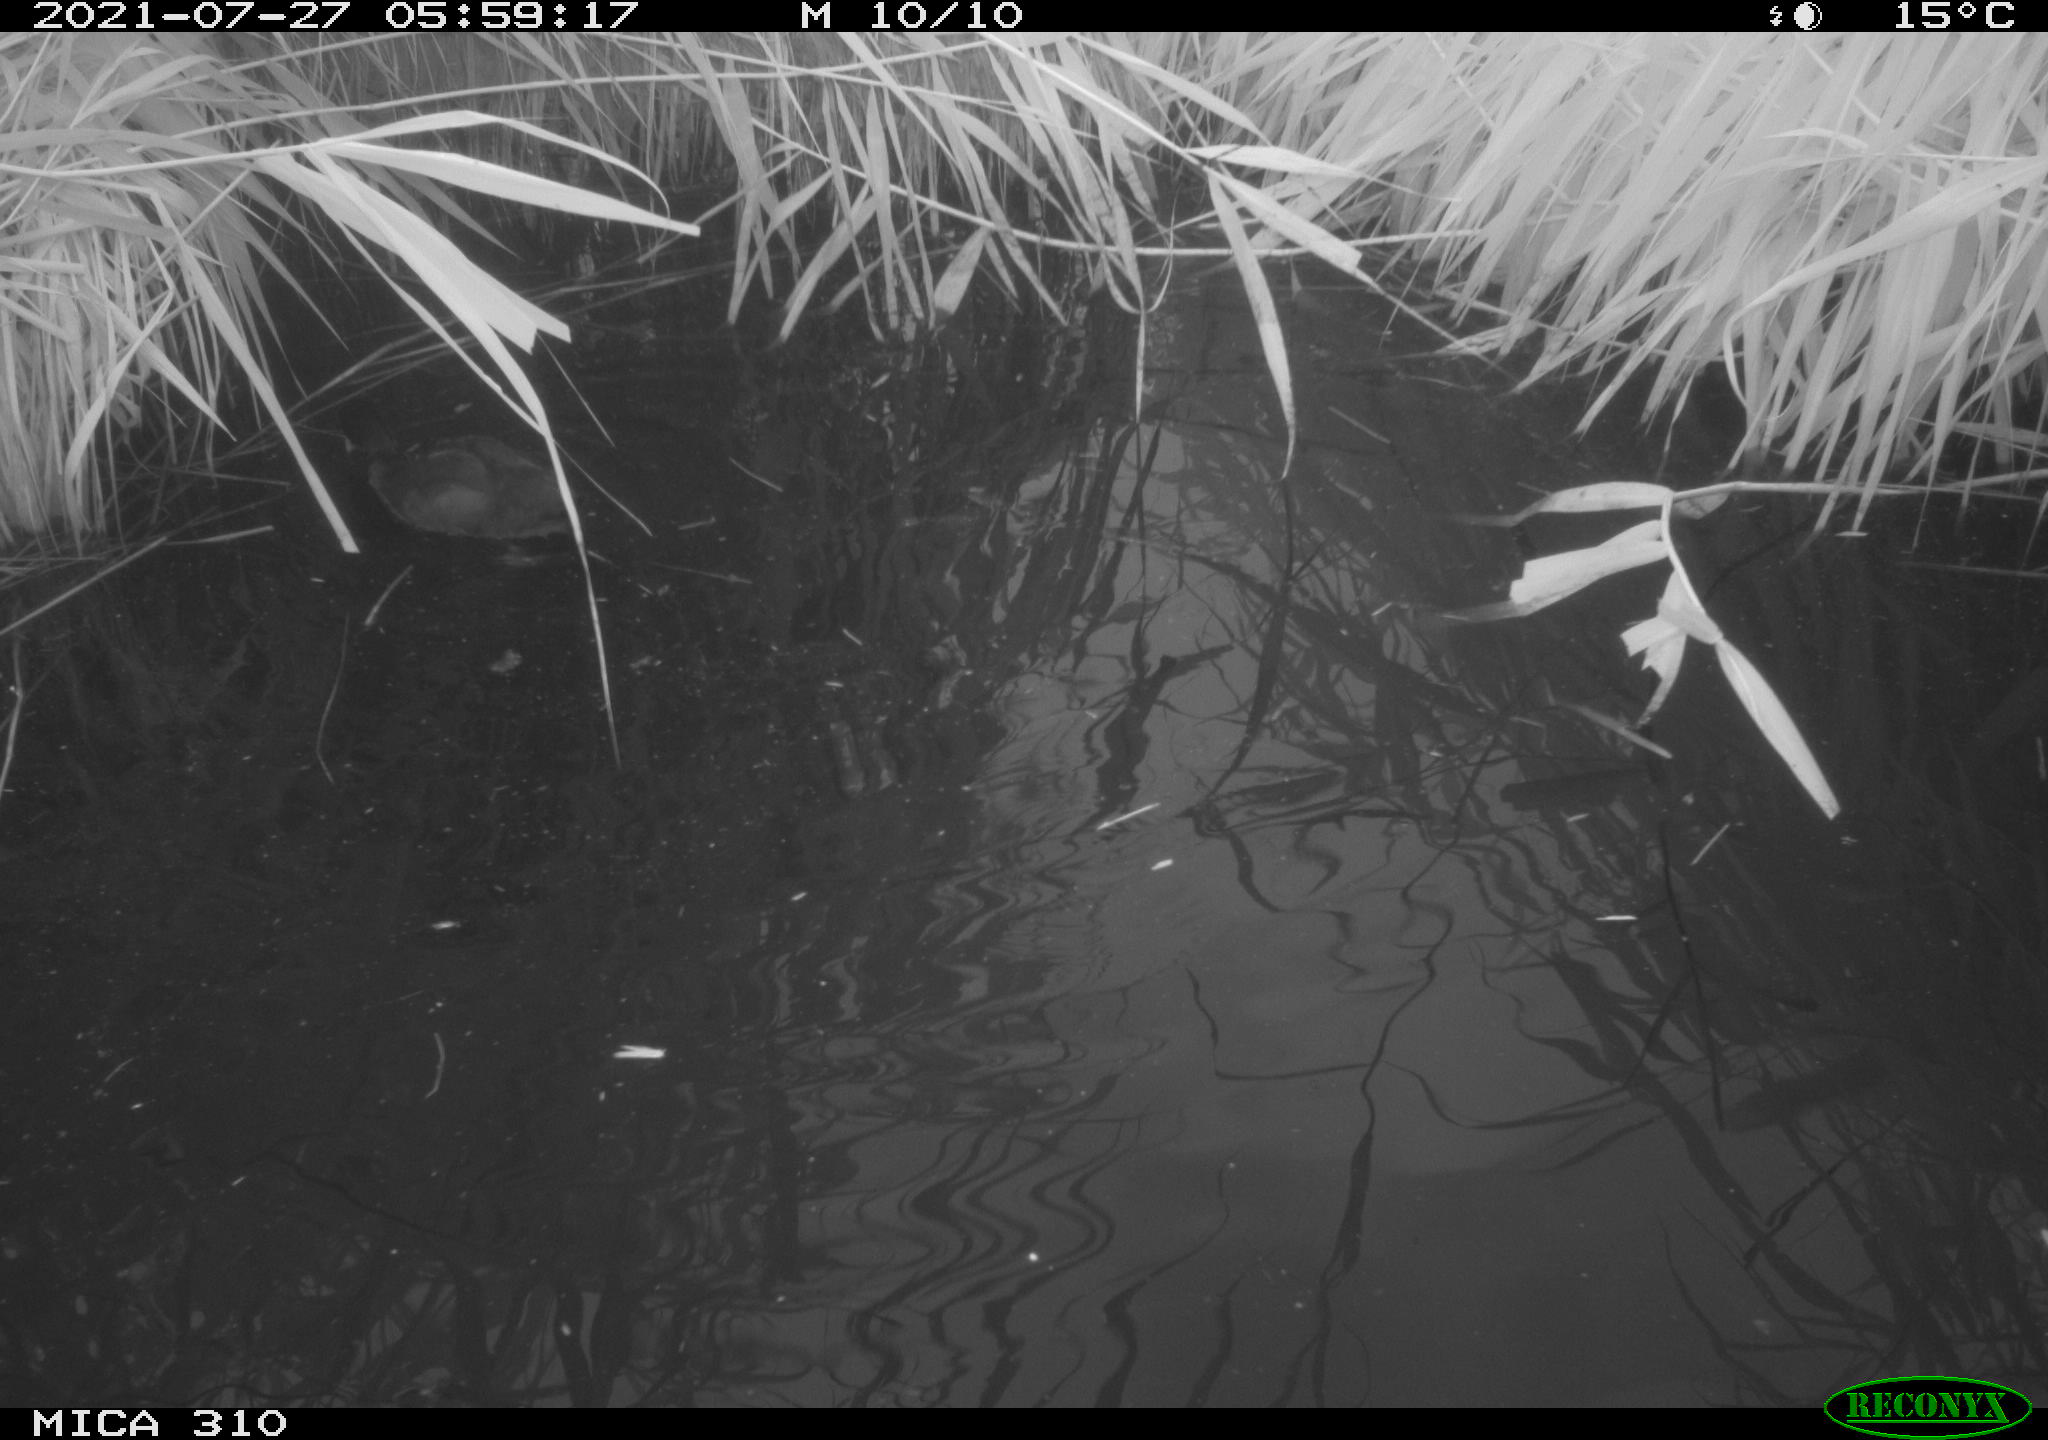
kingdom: Animalia
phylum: Chordata
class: Aves
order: Gruiformes
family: Rallidae
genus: Gallinula
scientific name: Gallinula chloropus
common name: Common moorhen
